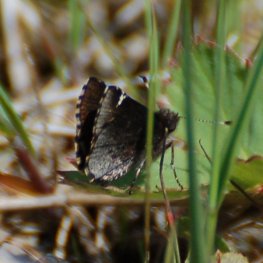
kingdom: Animalia
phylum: Arthropoda
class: Insecta
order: Lepidoptera
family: Hesperiidae
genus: Mastor
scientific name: Mastor vialis
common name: Common Roadside-Skipper
